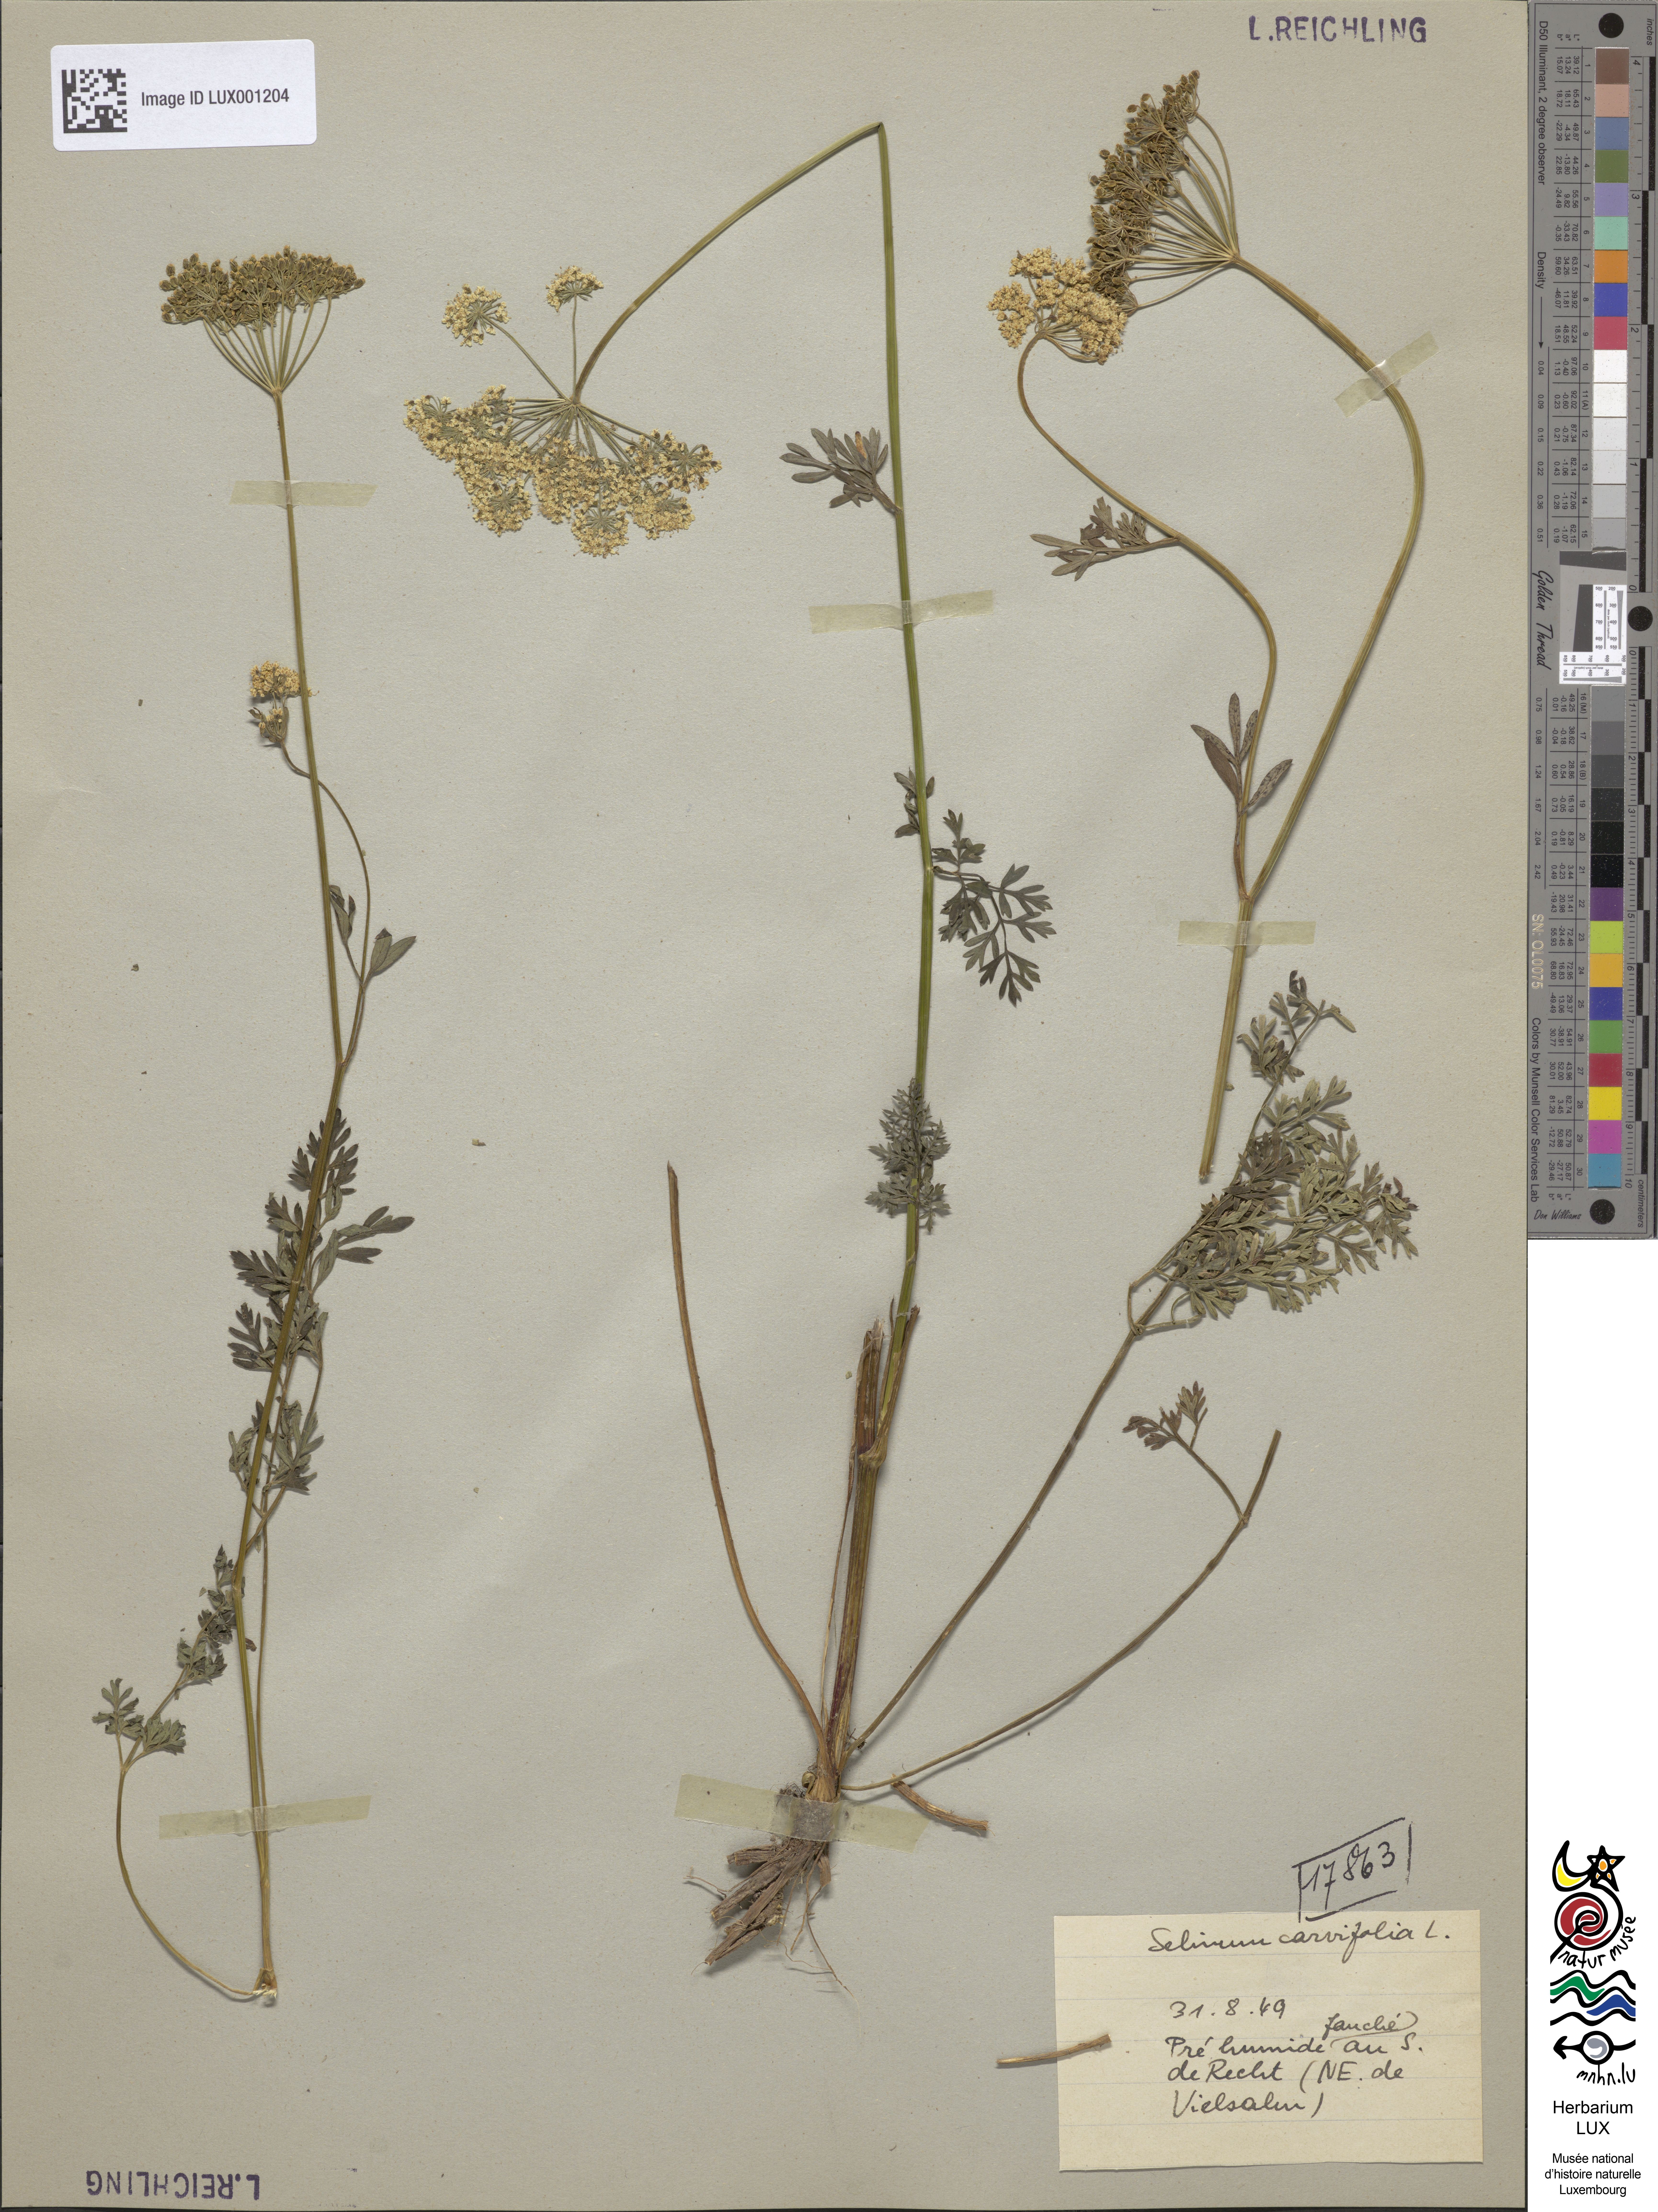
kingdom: Plantae
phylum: Tracheophyta
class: Magnoliopsida
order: Apiales
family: Apiaceae
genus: Selinum
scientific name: Selinum carvifolia
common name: Cambridge milk-parsley
